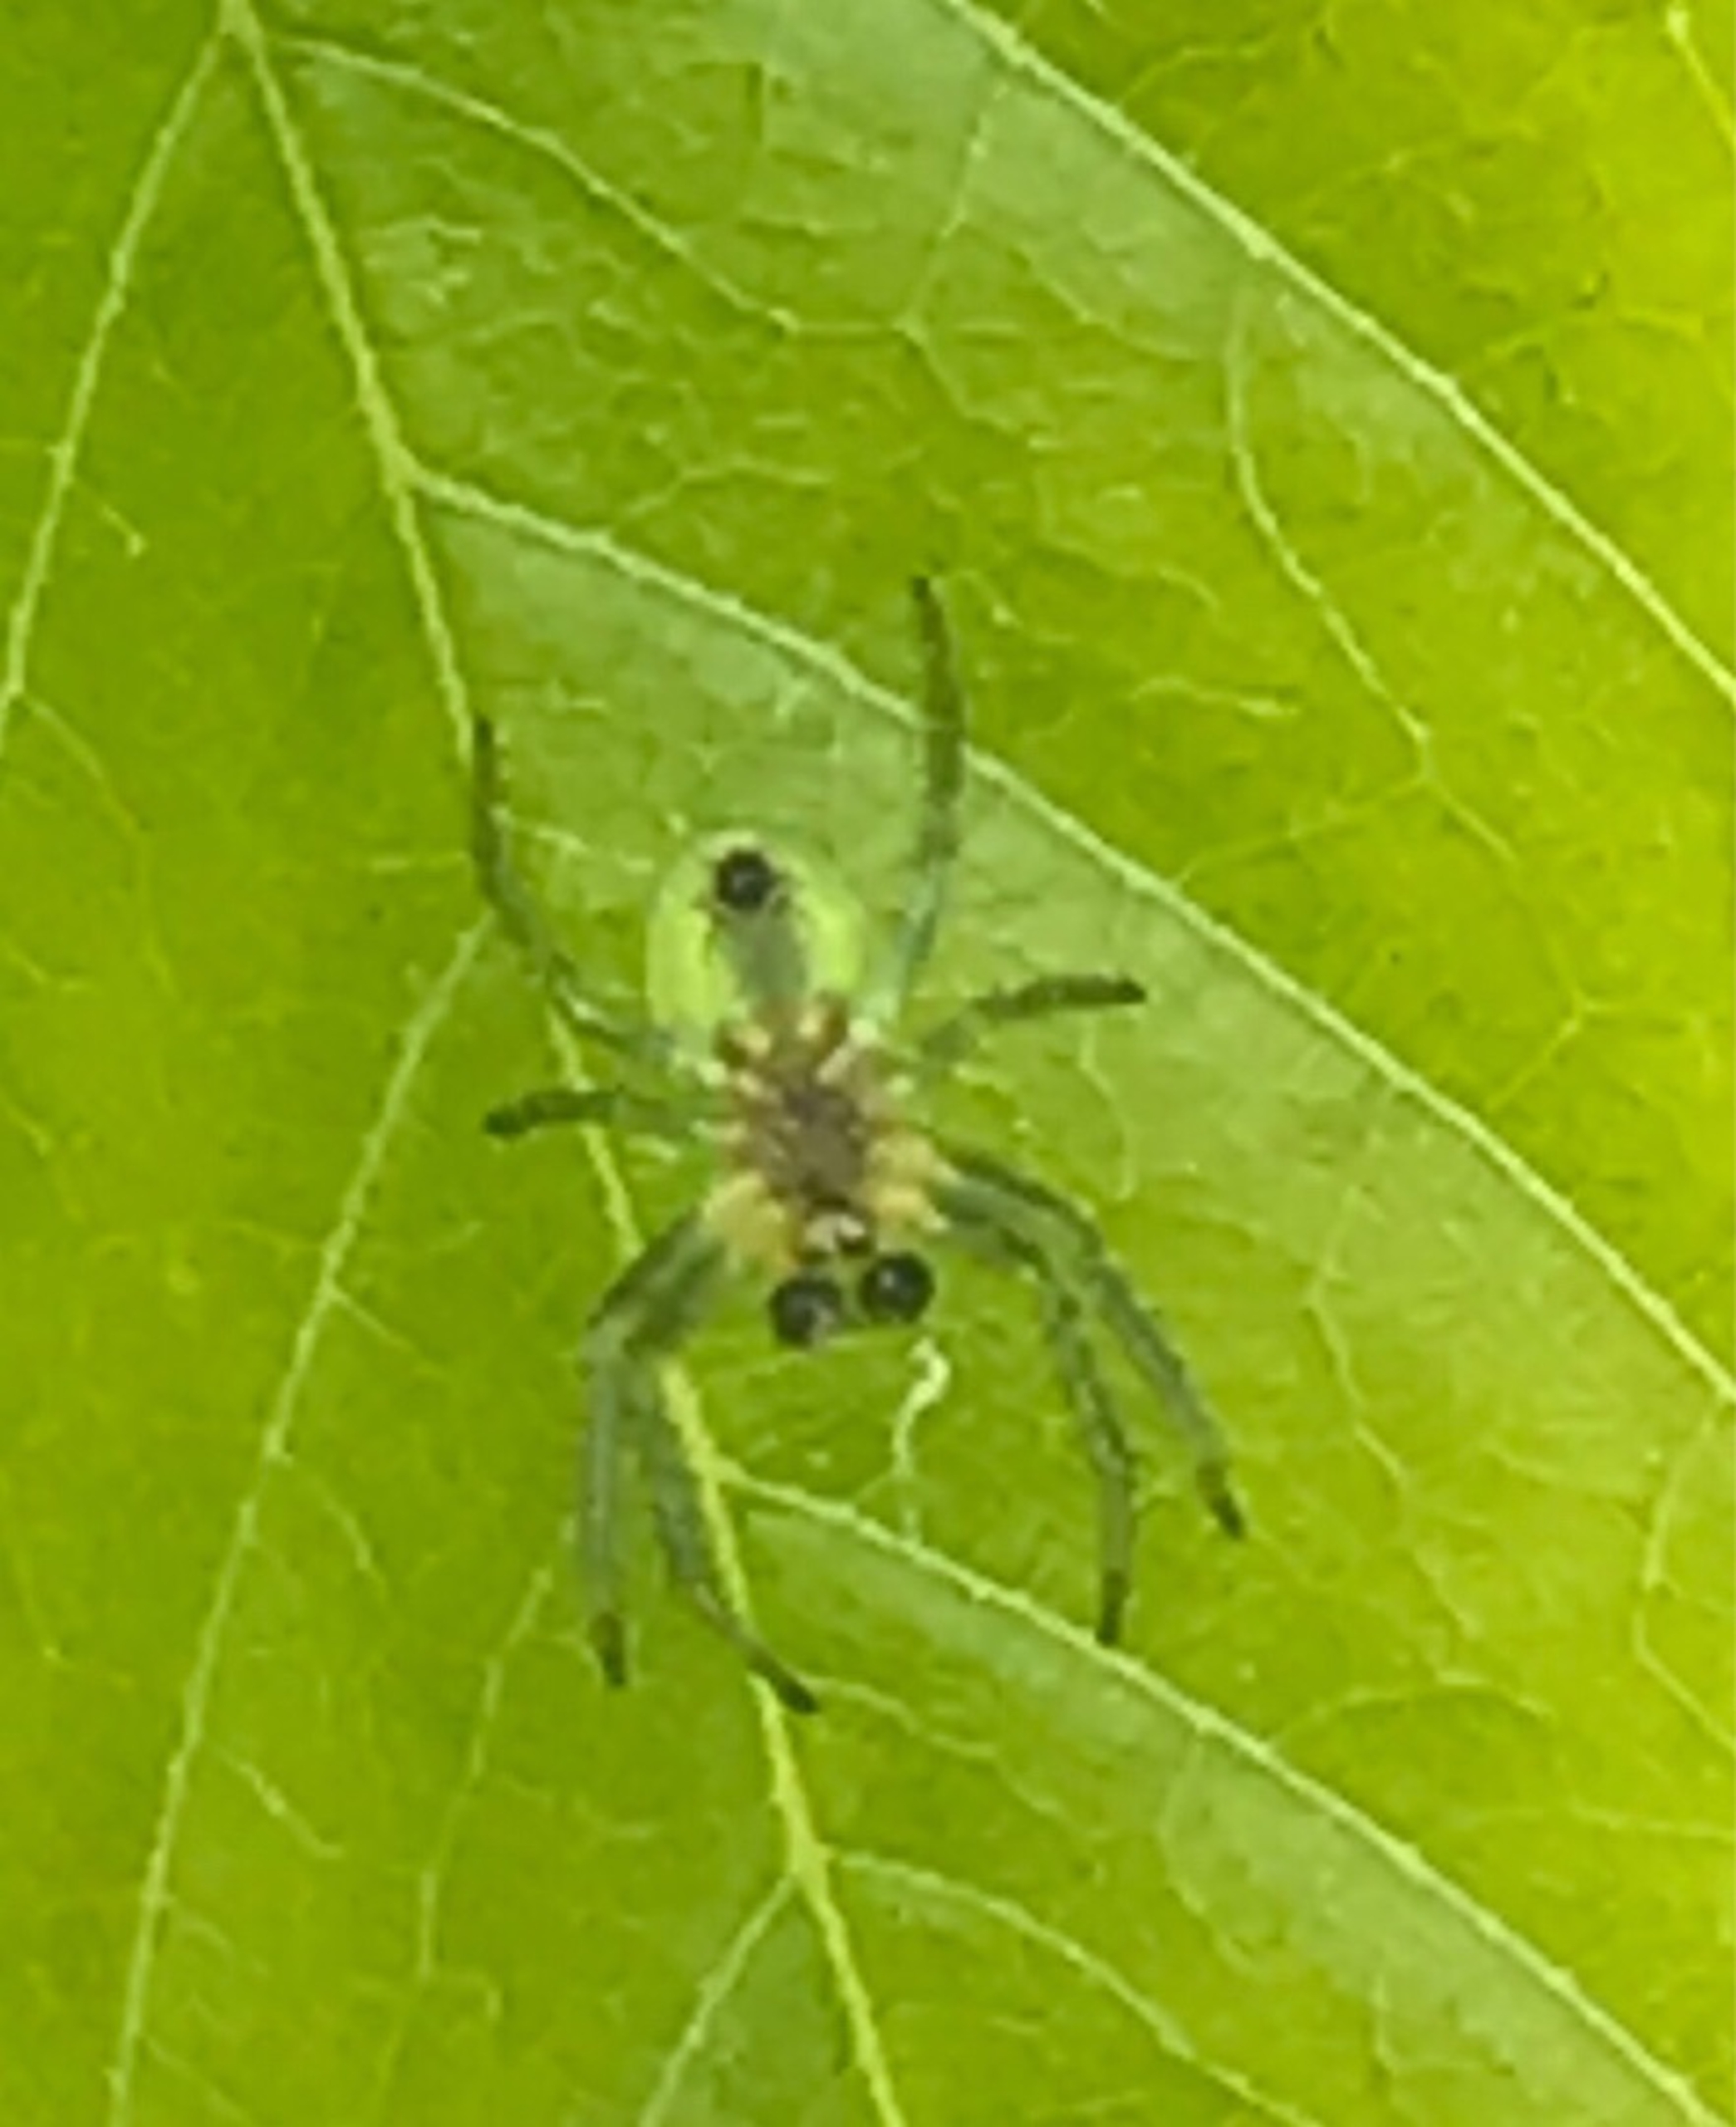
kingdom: Animalia
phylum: Arthropoda
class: Arachnida
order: Araneae
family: Araneidae
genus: Araniella
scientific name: Araniella
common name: Agurkeedderkopslægten
